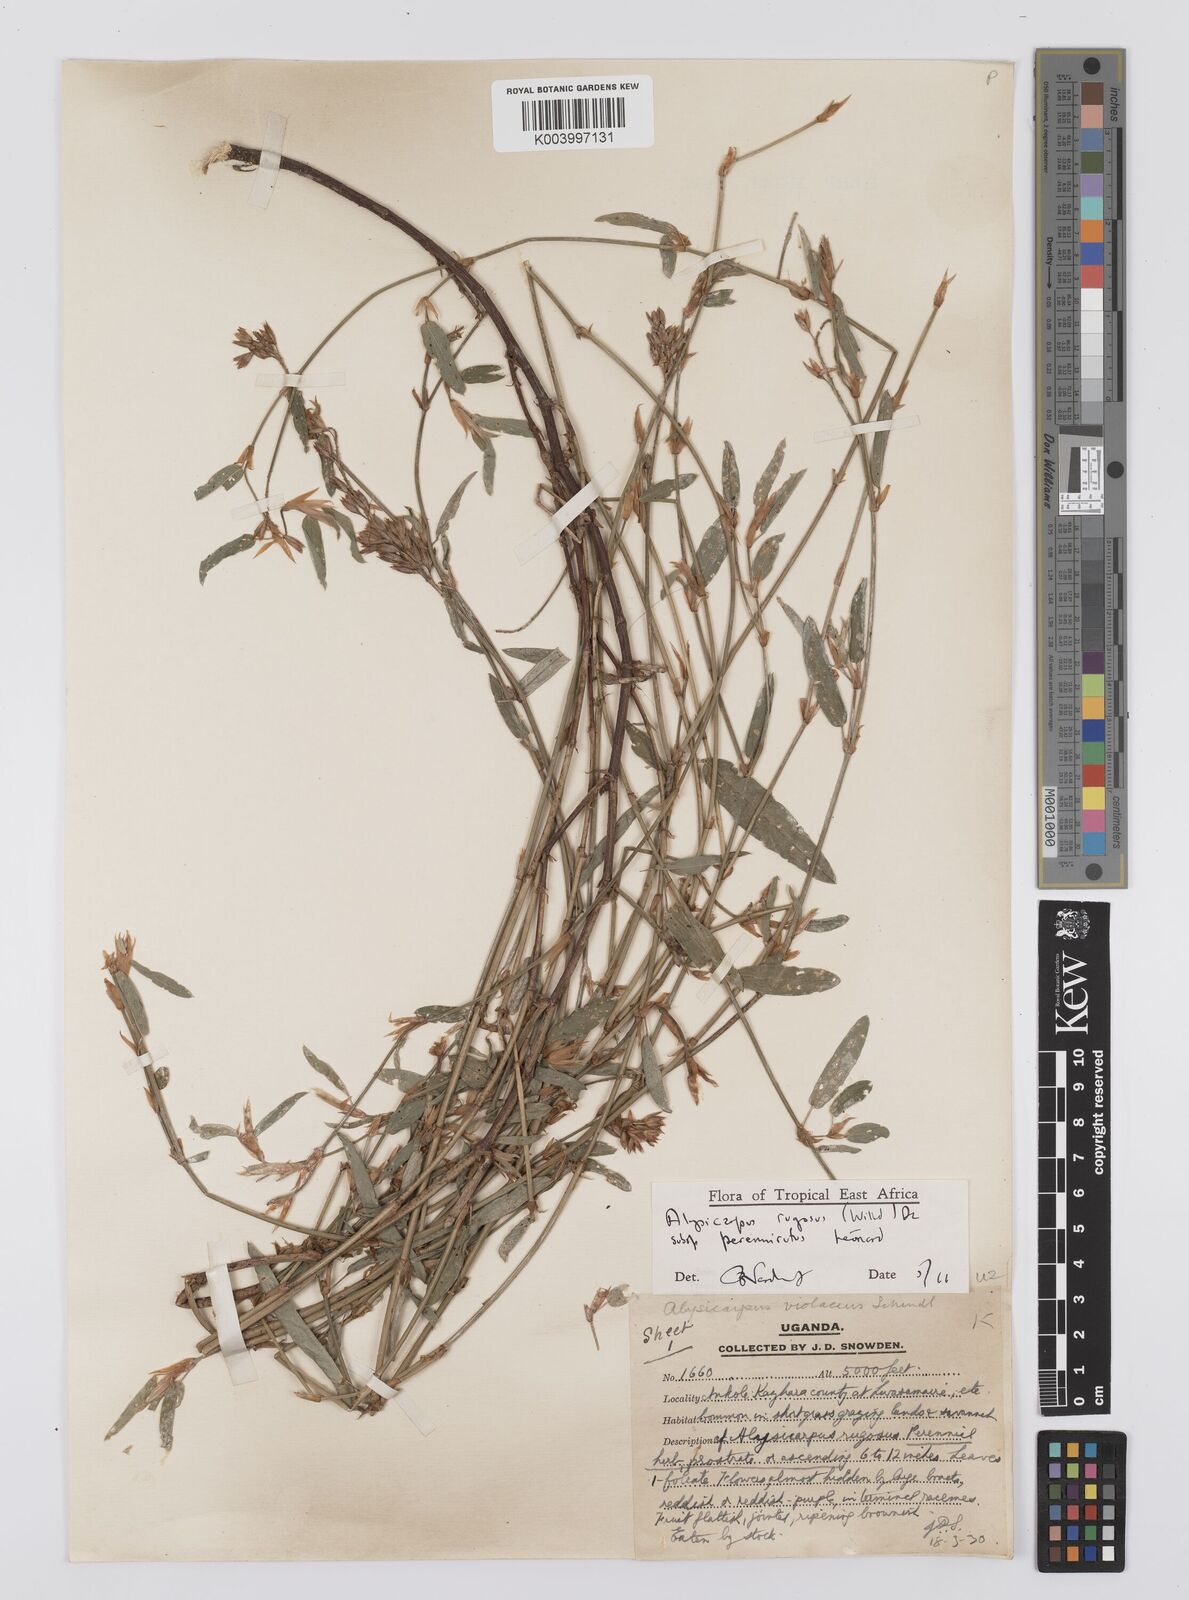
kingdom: Plantae
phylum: Tracheophyta
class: Magnoliopsida
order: Fabales
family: Fabaceae
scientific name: Fabaceae
